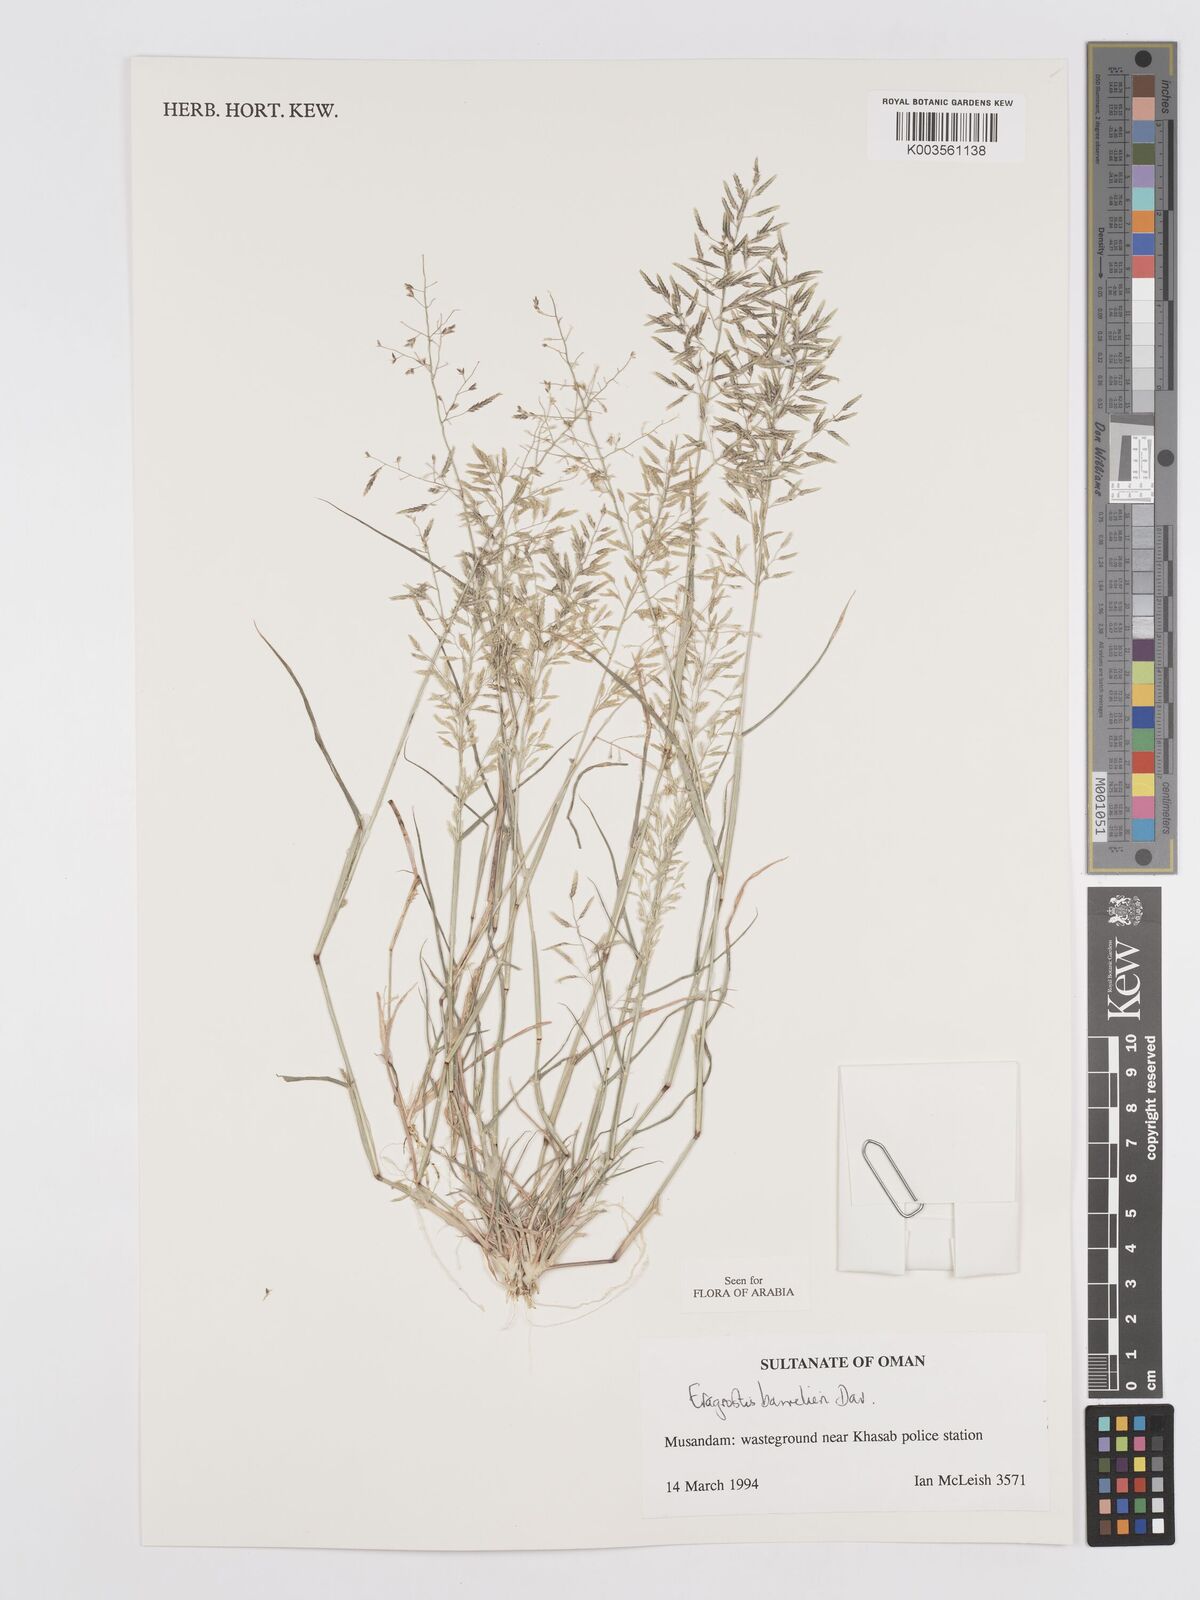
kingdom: Plantae
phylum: Tracheophyta
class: Liliopsida
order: Poales
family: Poaceae
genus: Eragrostis
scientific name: Eragrostis barrelieri
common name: Mediterranean lovegrass
